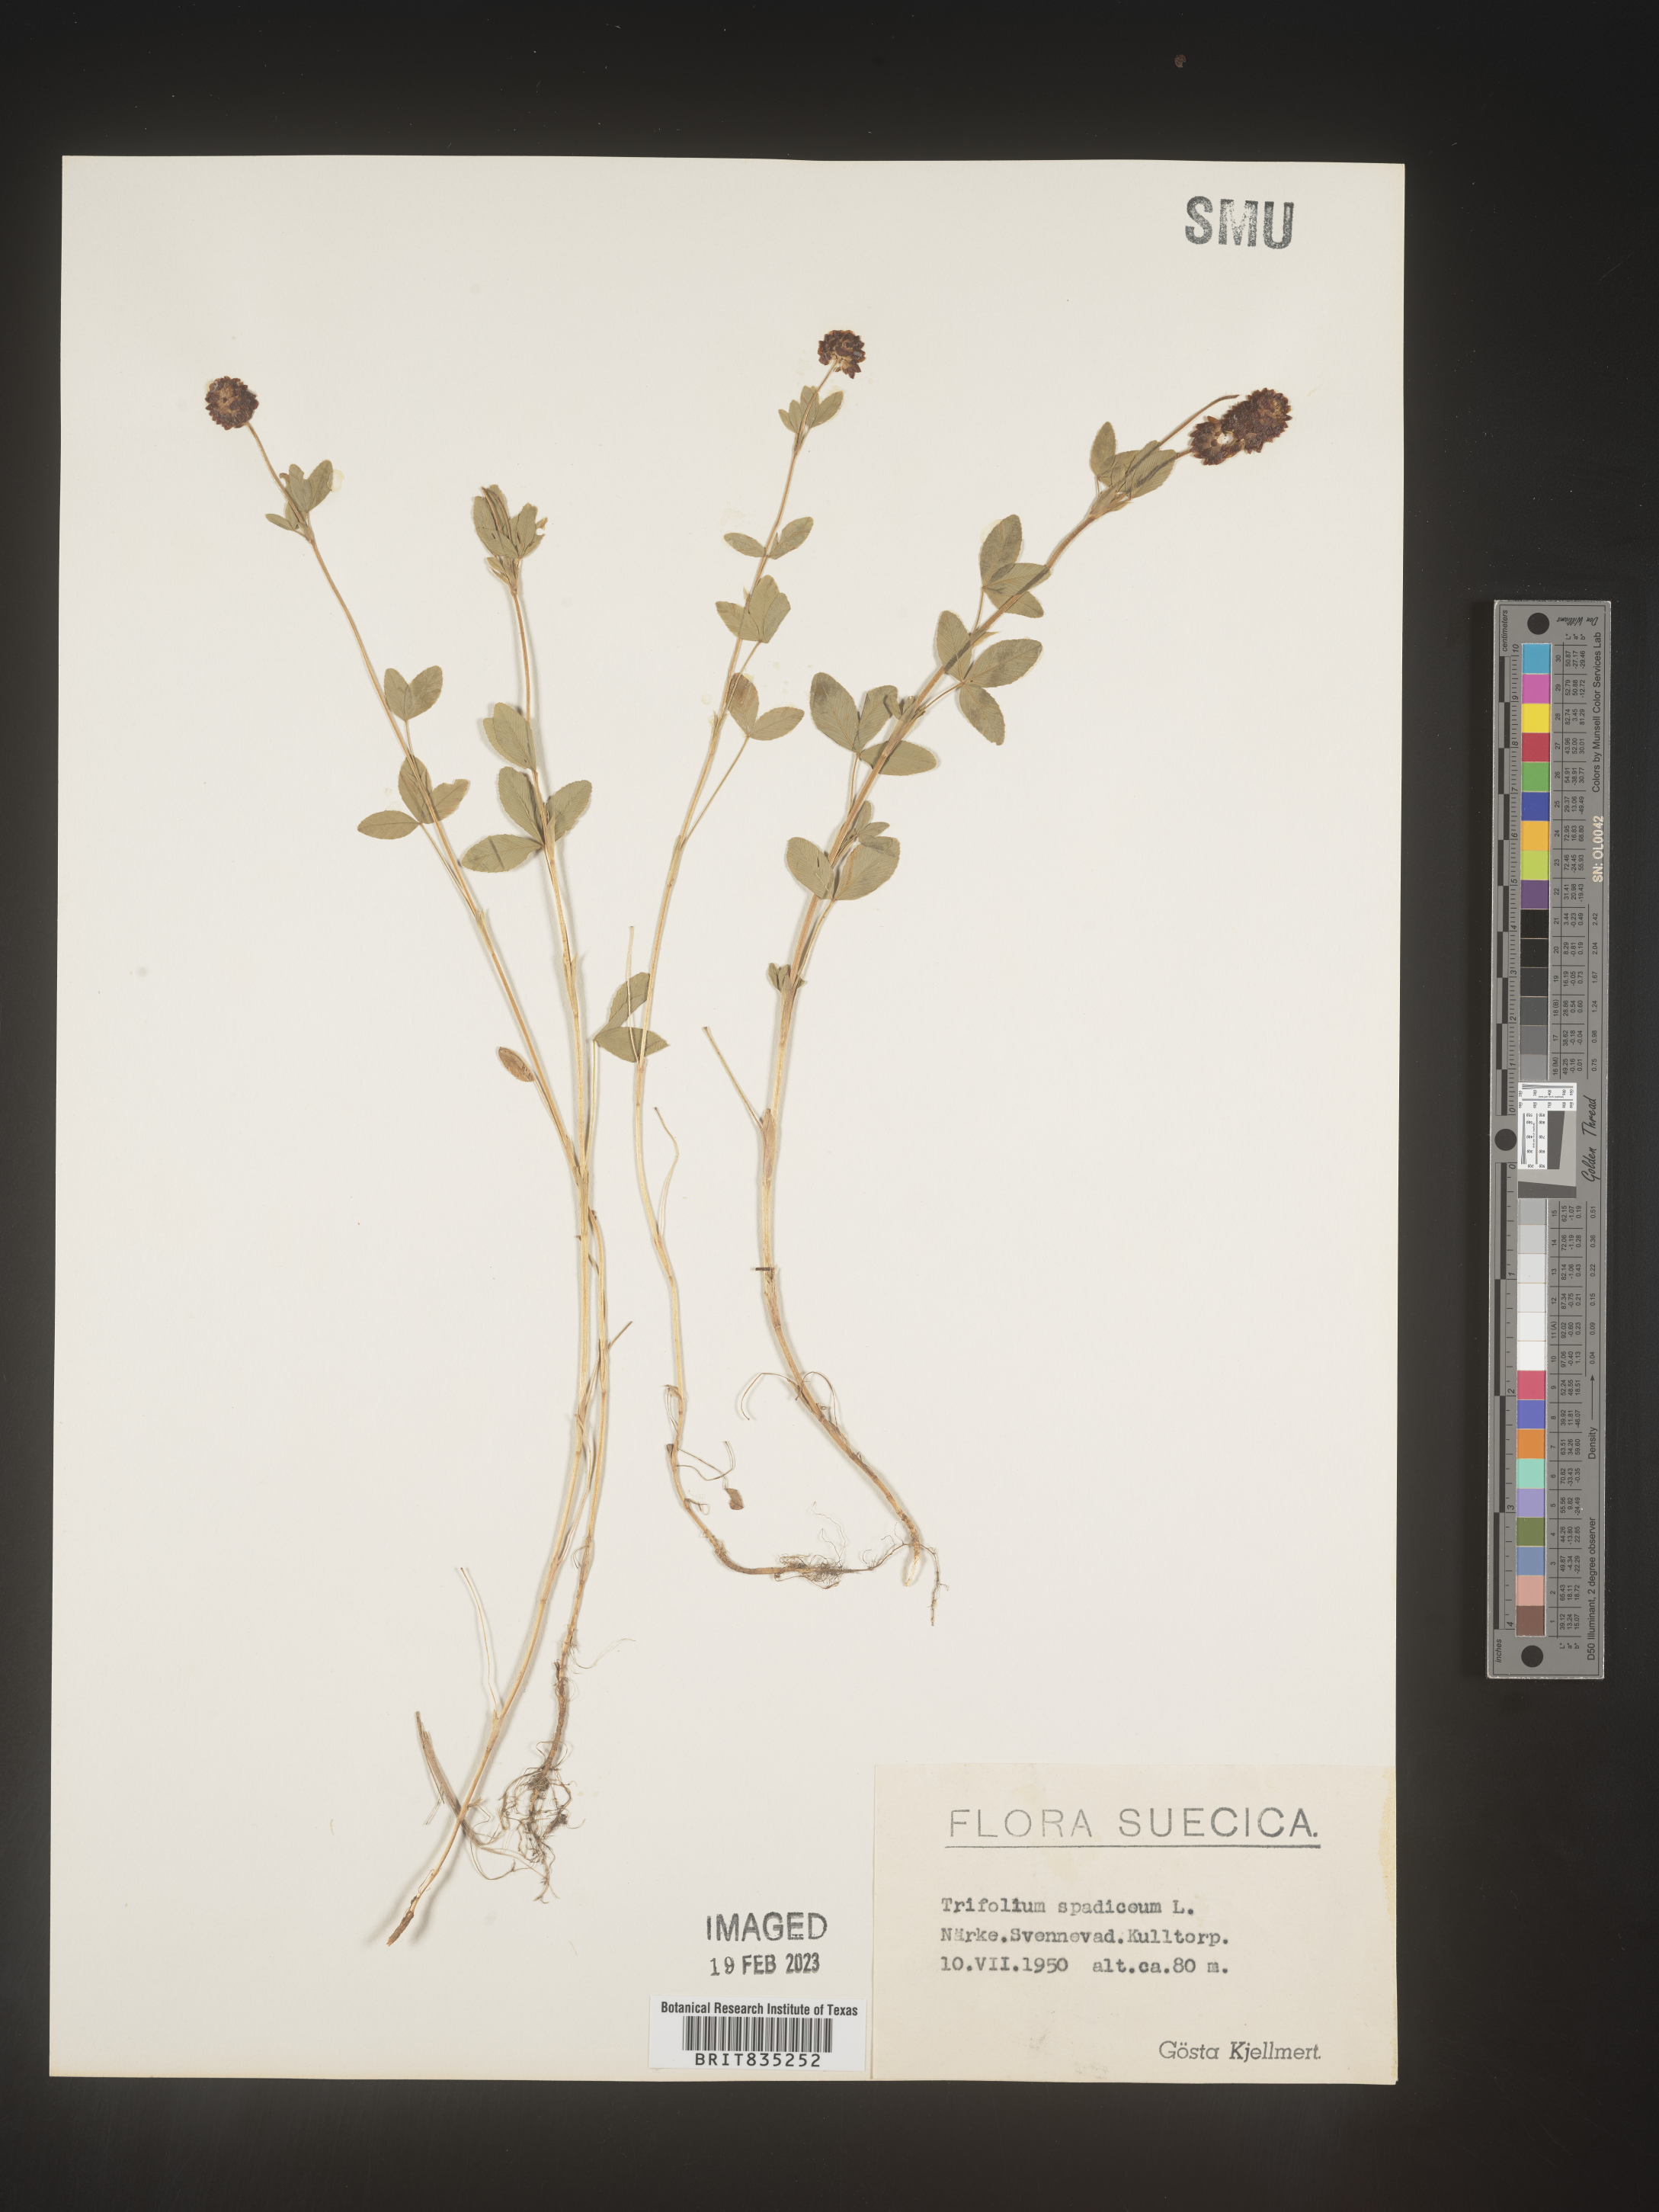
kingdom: Plantae
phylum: Tracheophyta
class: Magnoliopsida
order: Fabales
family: Fabaceae
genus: Trifolium
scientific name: Trifolium
